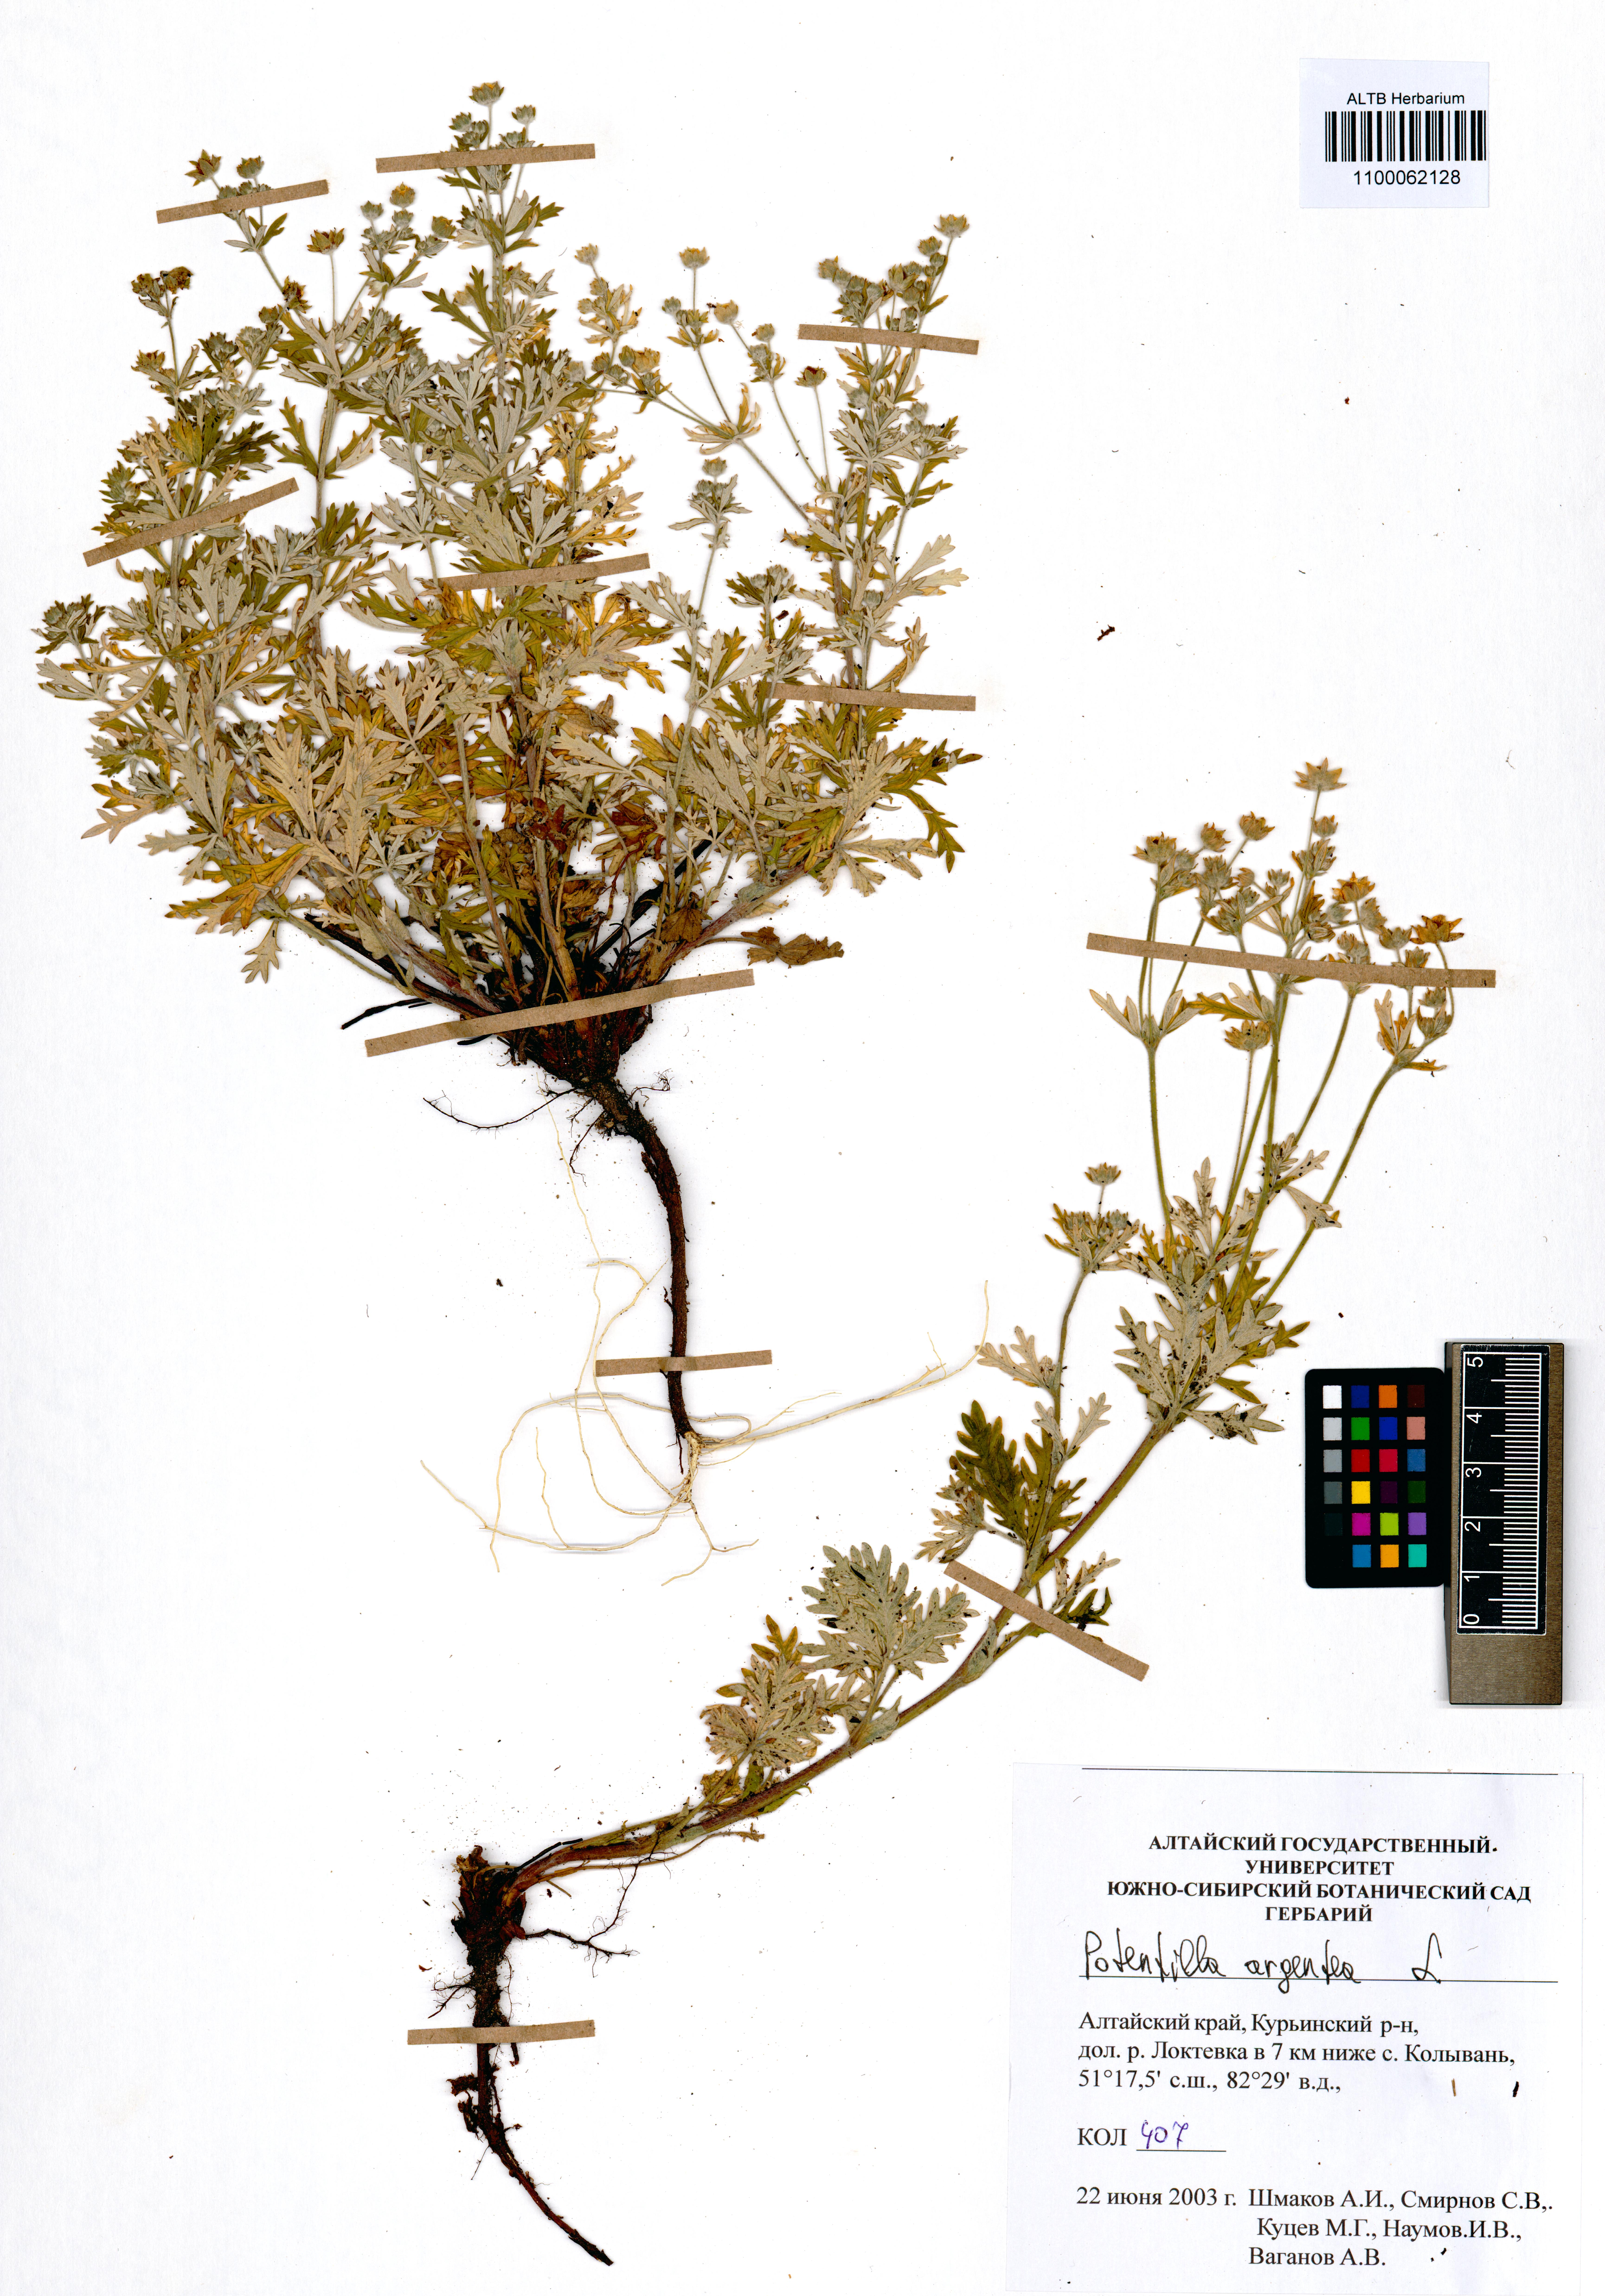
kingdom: Plantae
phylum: Tracheophyta
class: Magnoliopsida
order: Rosales
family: Rosaceae
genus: Potentilla
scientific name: Potentilla argentea
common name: Hoary cinquefoil
